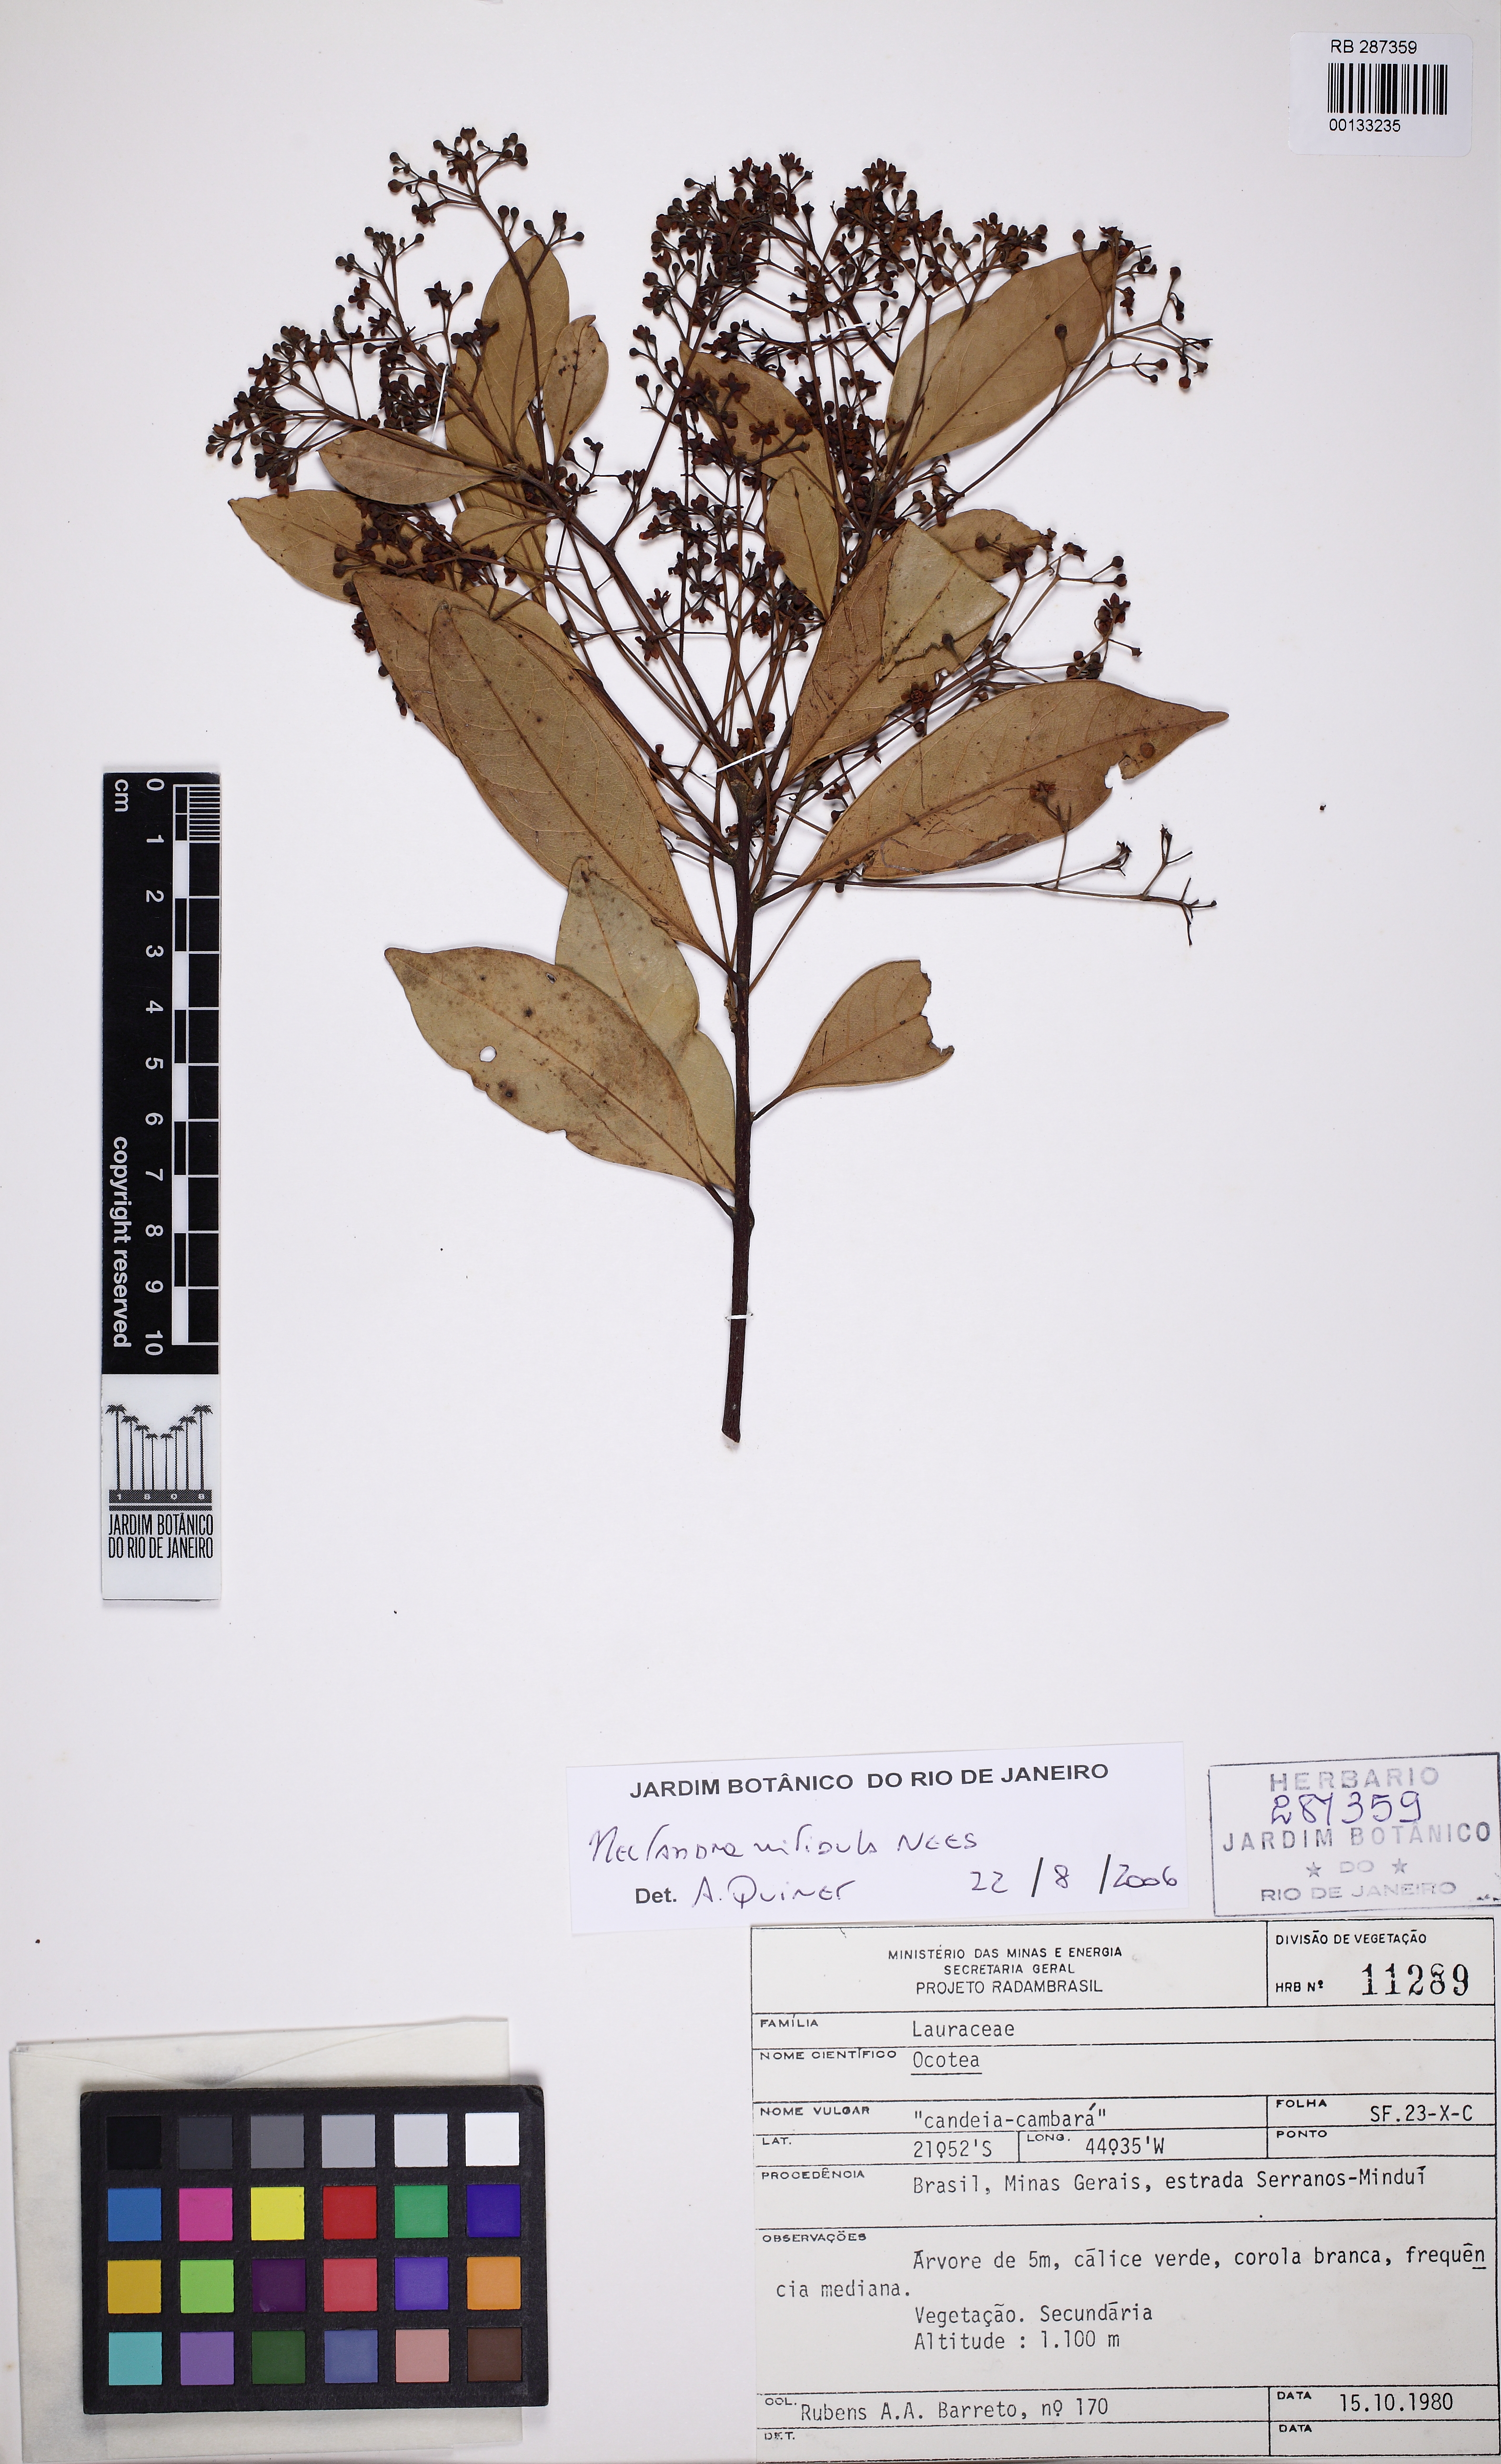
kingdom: Plantae
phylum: Tracheophyta
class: Magnoliopsida
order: Laurales
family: Lauraceae
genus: Nectandra
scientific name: Nectandra nitidula
